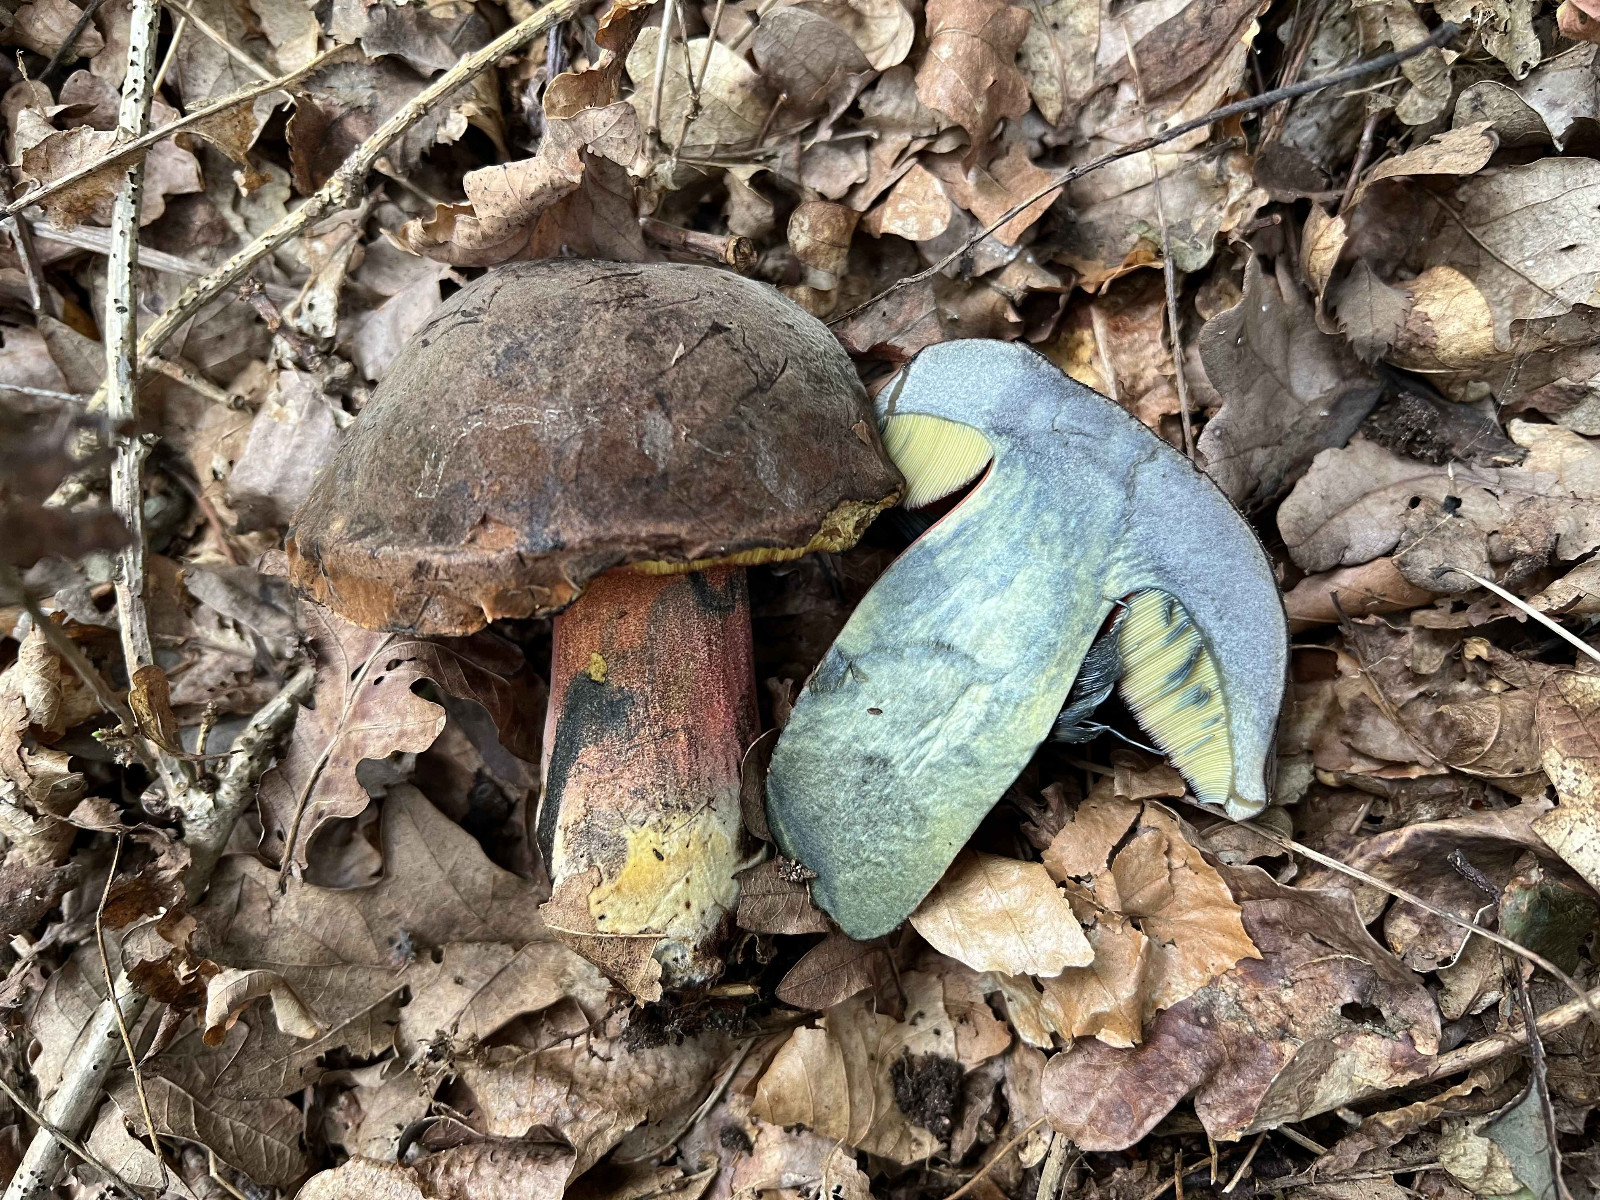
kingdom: Fungi
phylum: Basidiomycota
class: Agaricomycetes
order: Boletales
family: Boletaceae
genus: Neoboletus
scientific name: Neoboletus erythropus
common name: punktstokket indigorørhat
